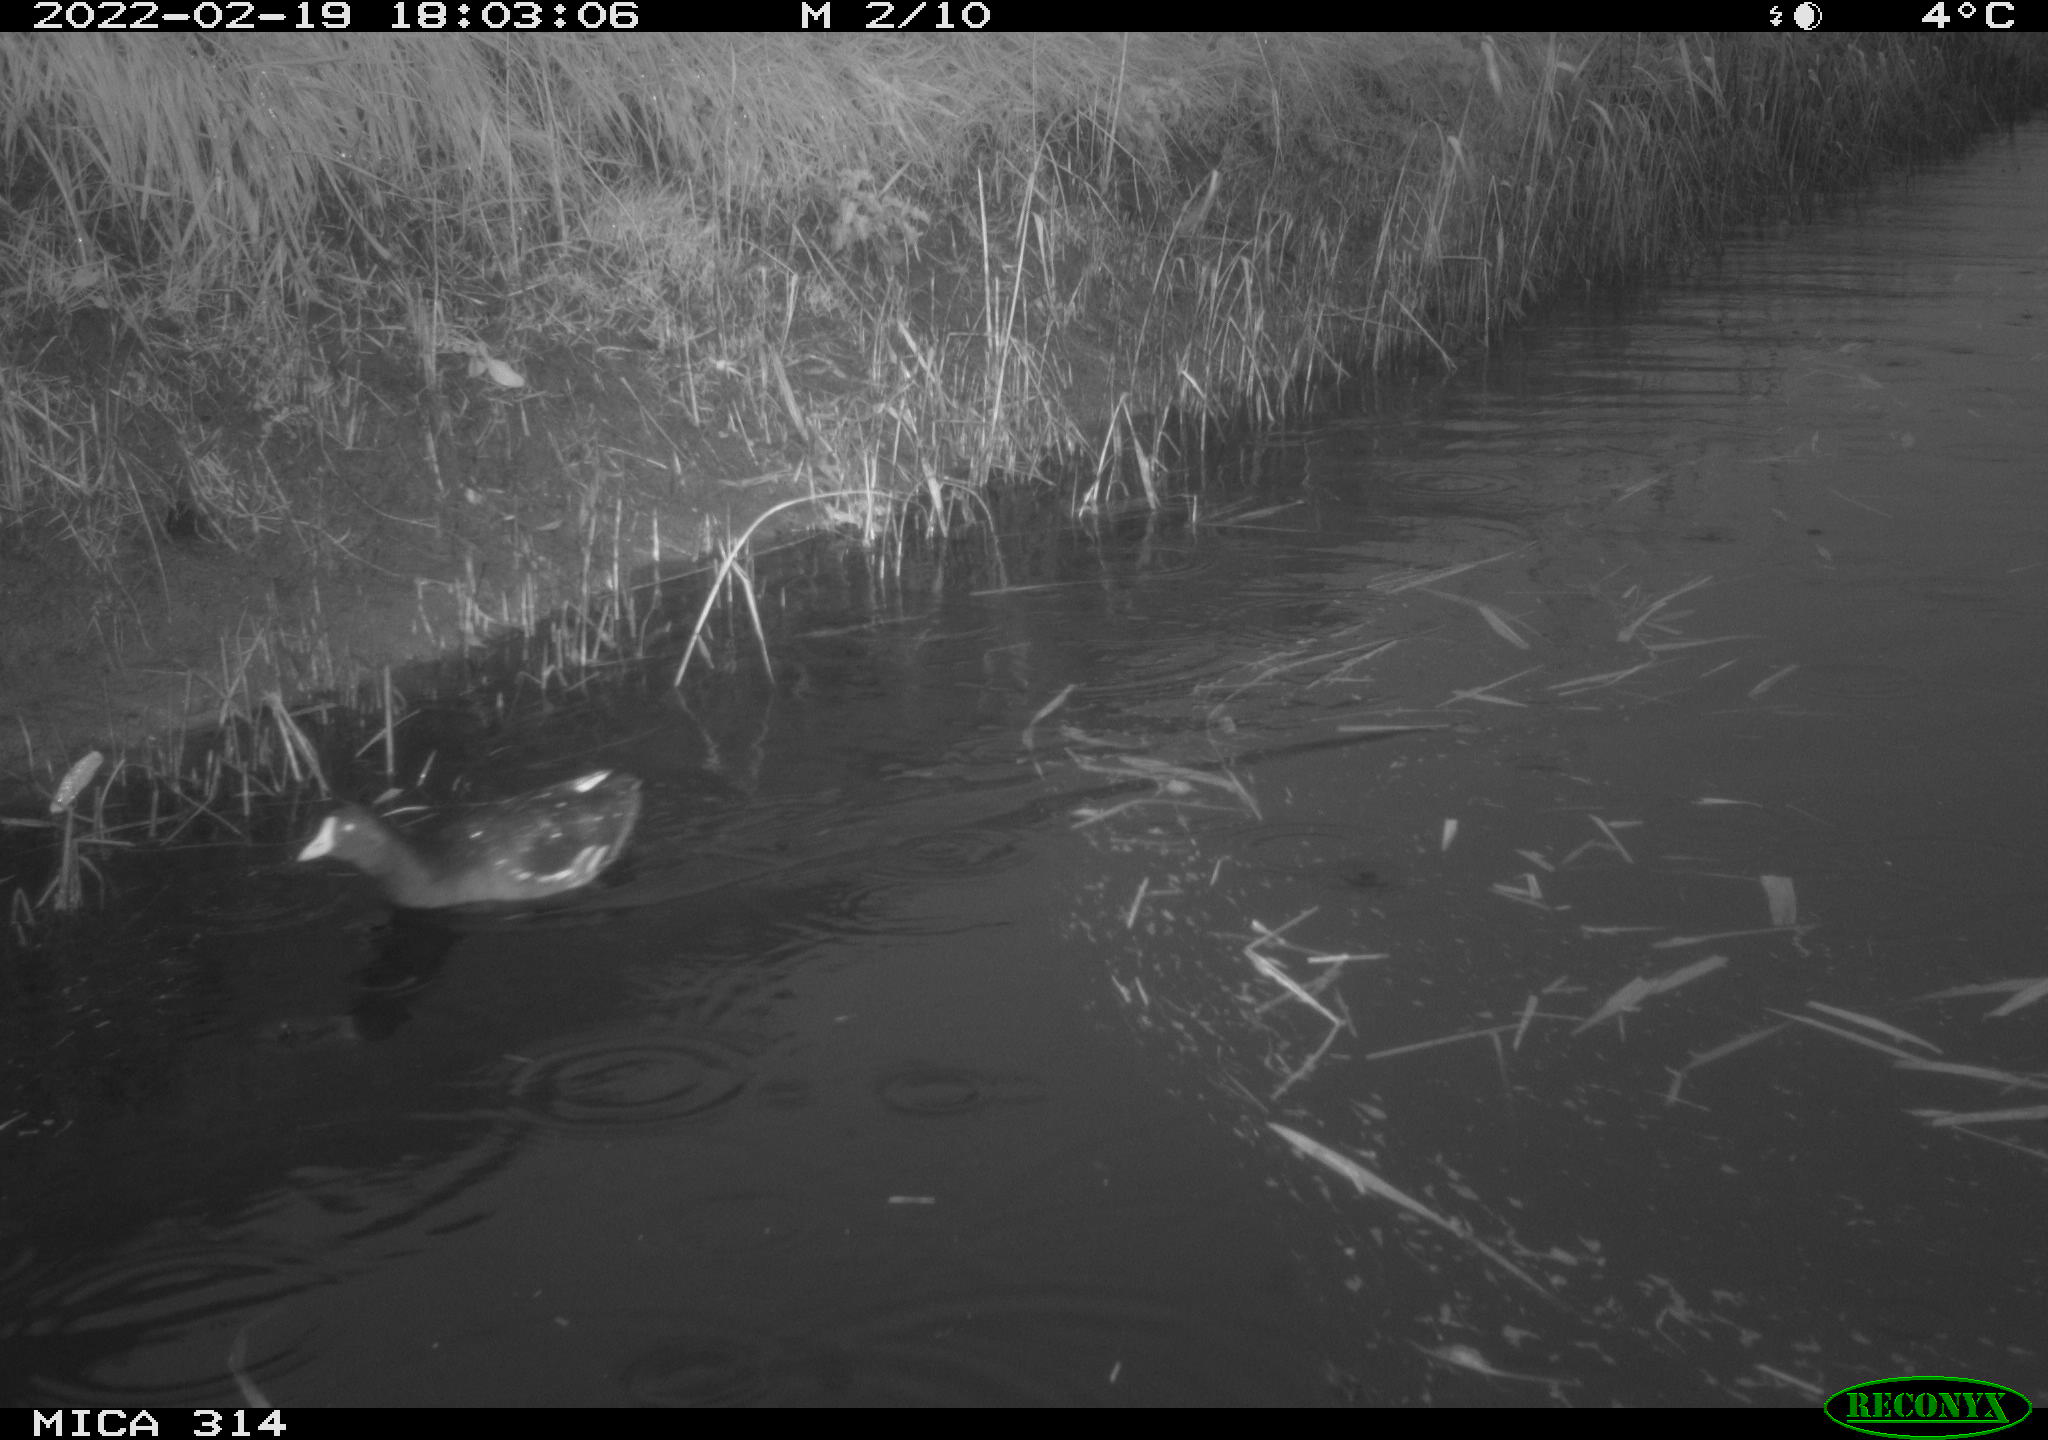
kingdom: Animalia
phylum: Chordata
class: Aves
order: Gruiformes
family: Rallidae
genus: Gallinula
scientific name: Gallinula chloropus
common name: Common moorhen
